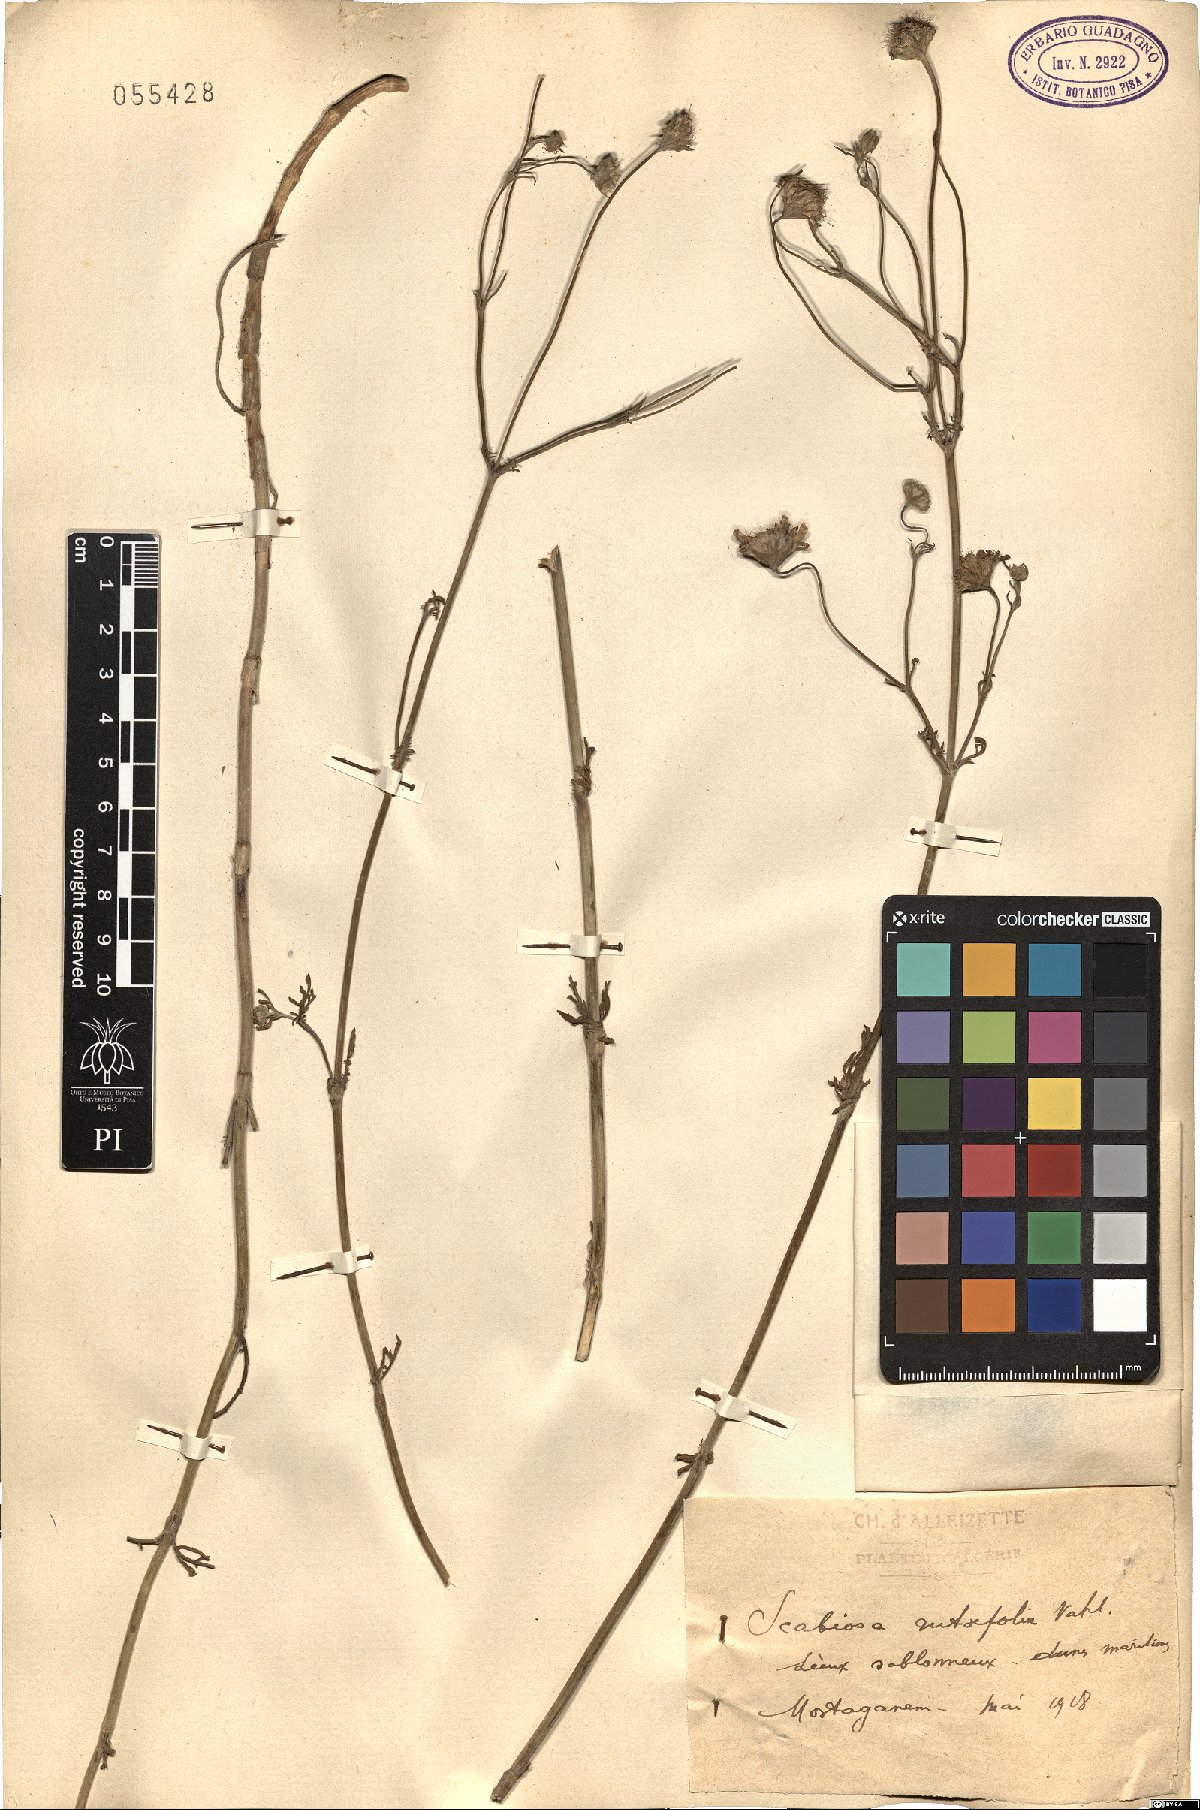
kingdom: Plantae
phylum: Tracheophyta
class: Magnoliopsida
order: Dipsacales
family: Caprifoliaceae
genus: Pycnocomon
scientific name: Pycnocomon rutifolium
